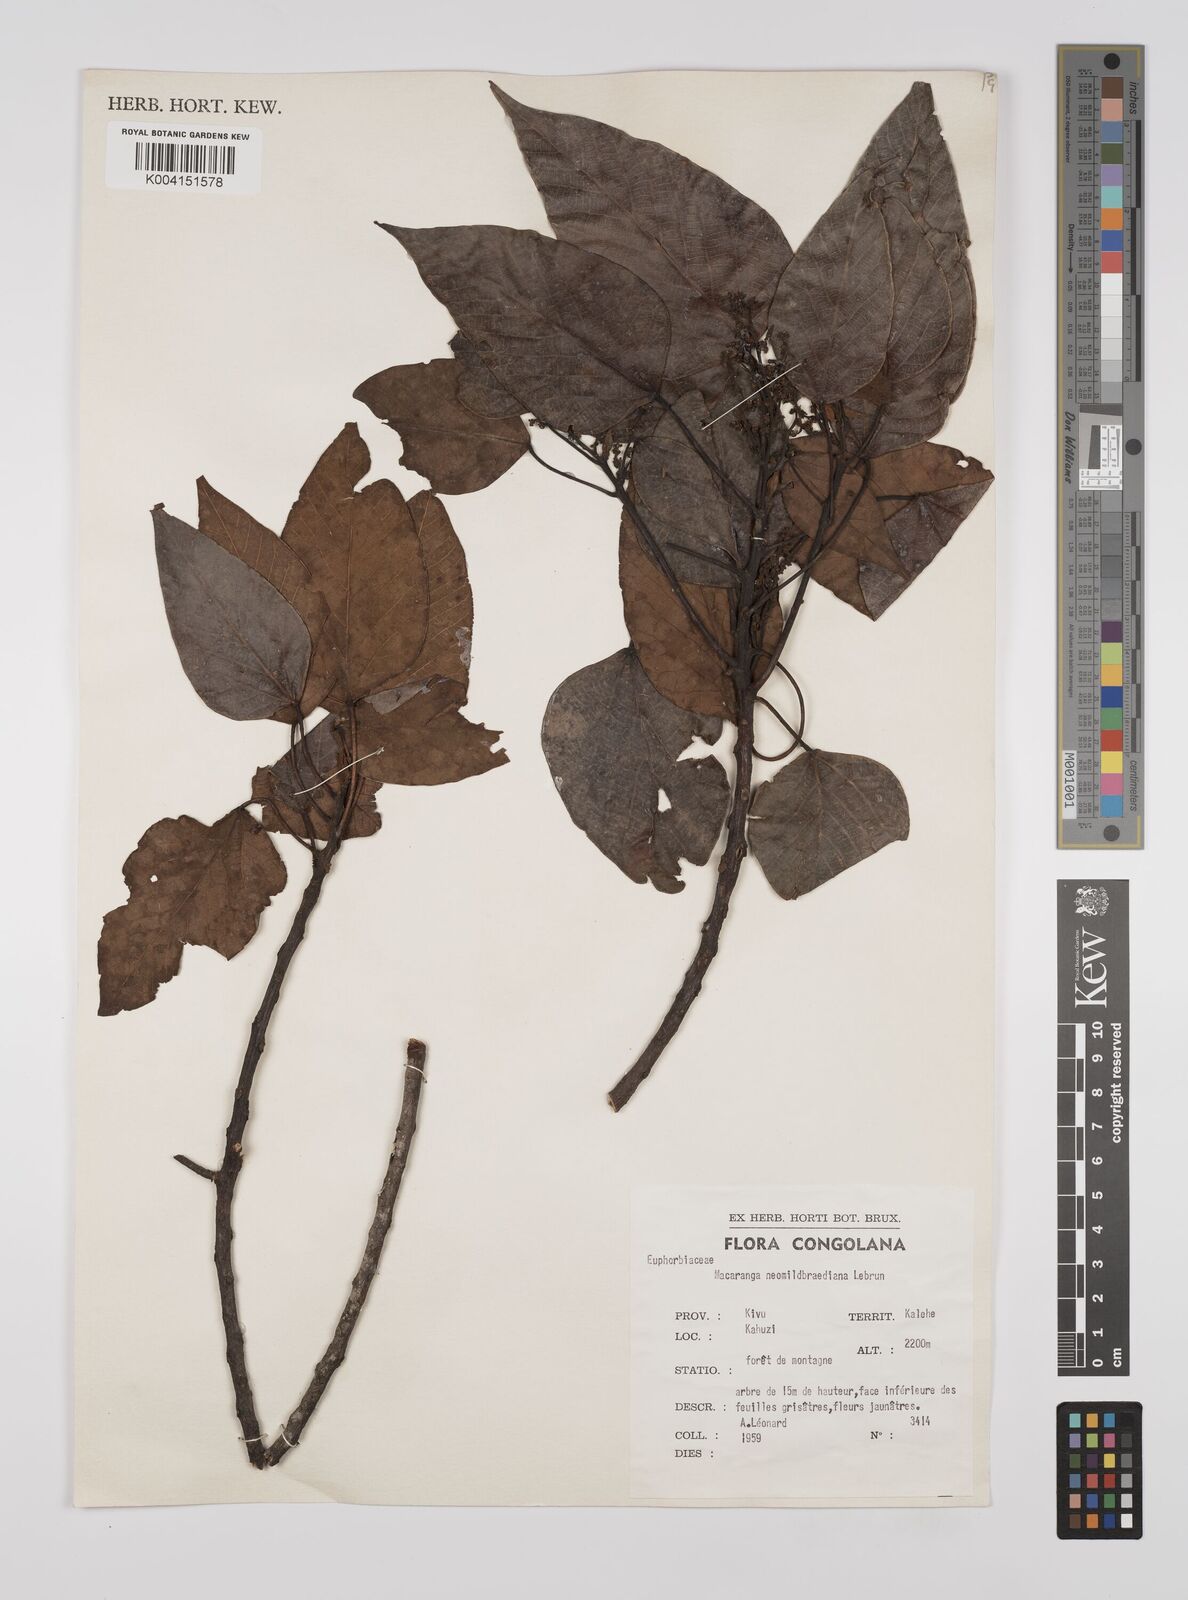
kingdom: Plantae
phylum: Tracheophyta
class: Magnoliopsida
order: Malpighiales
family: Euphorbiaceae
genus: Macaranga
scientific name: Macaranga kilimandscharica
